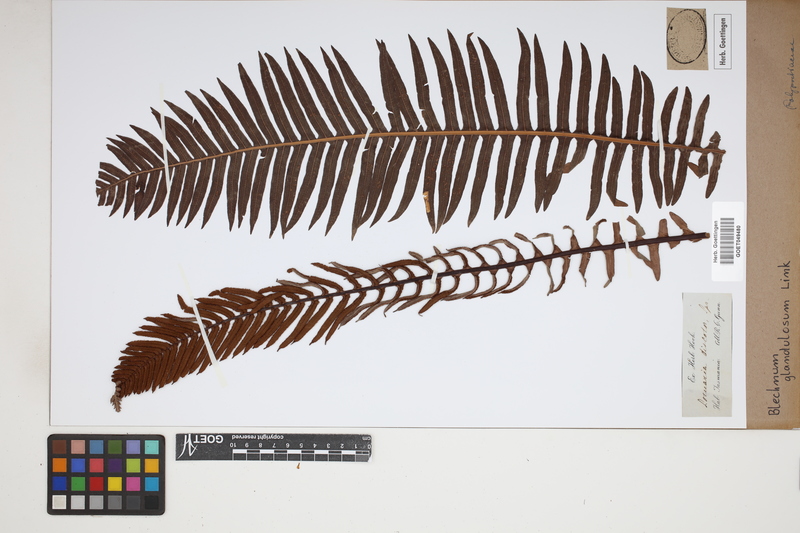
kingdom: Plantae
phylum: Tracheophyta
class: Polypodiopsida
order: Polypodiales
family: Blechnaceae
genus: Blechnum
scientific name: Blechnum appendiculatum
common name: Palm fern
